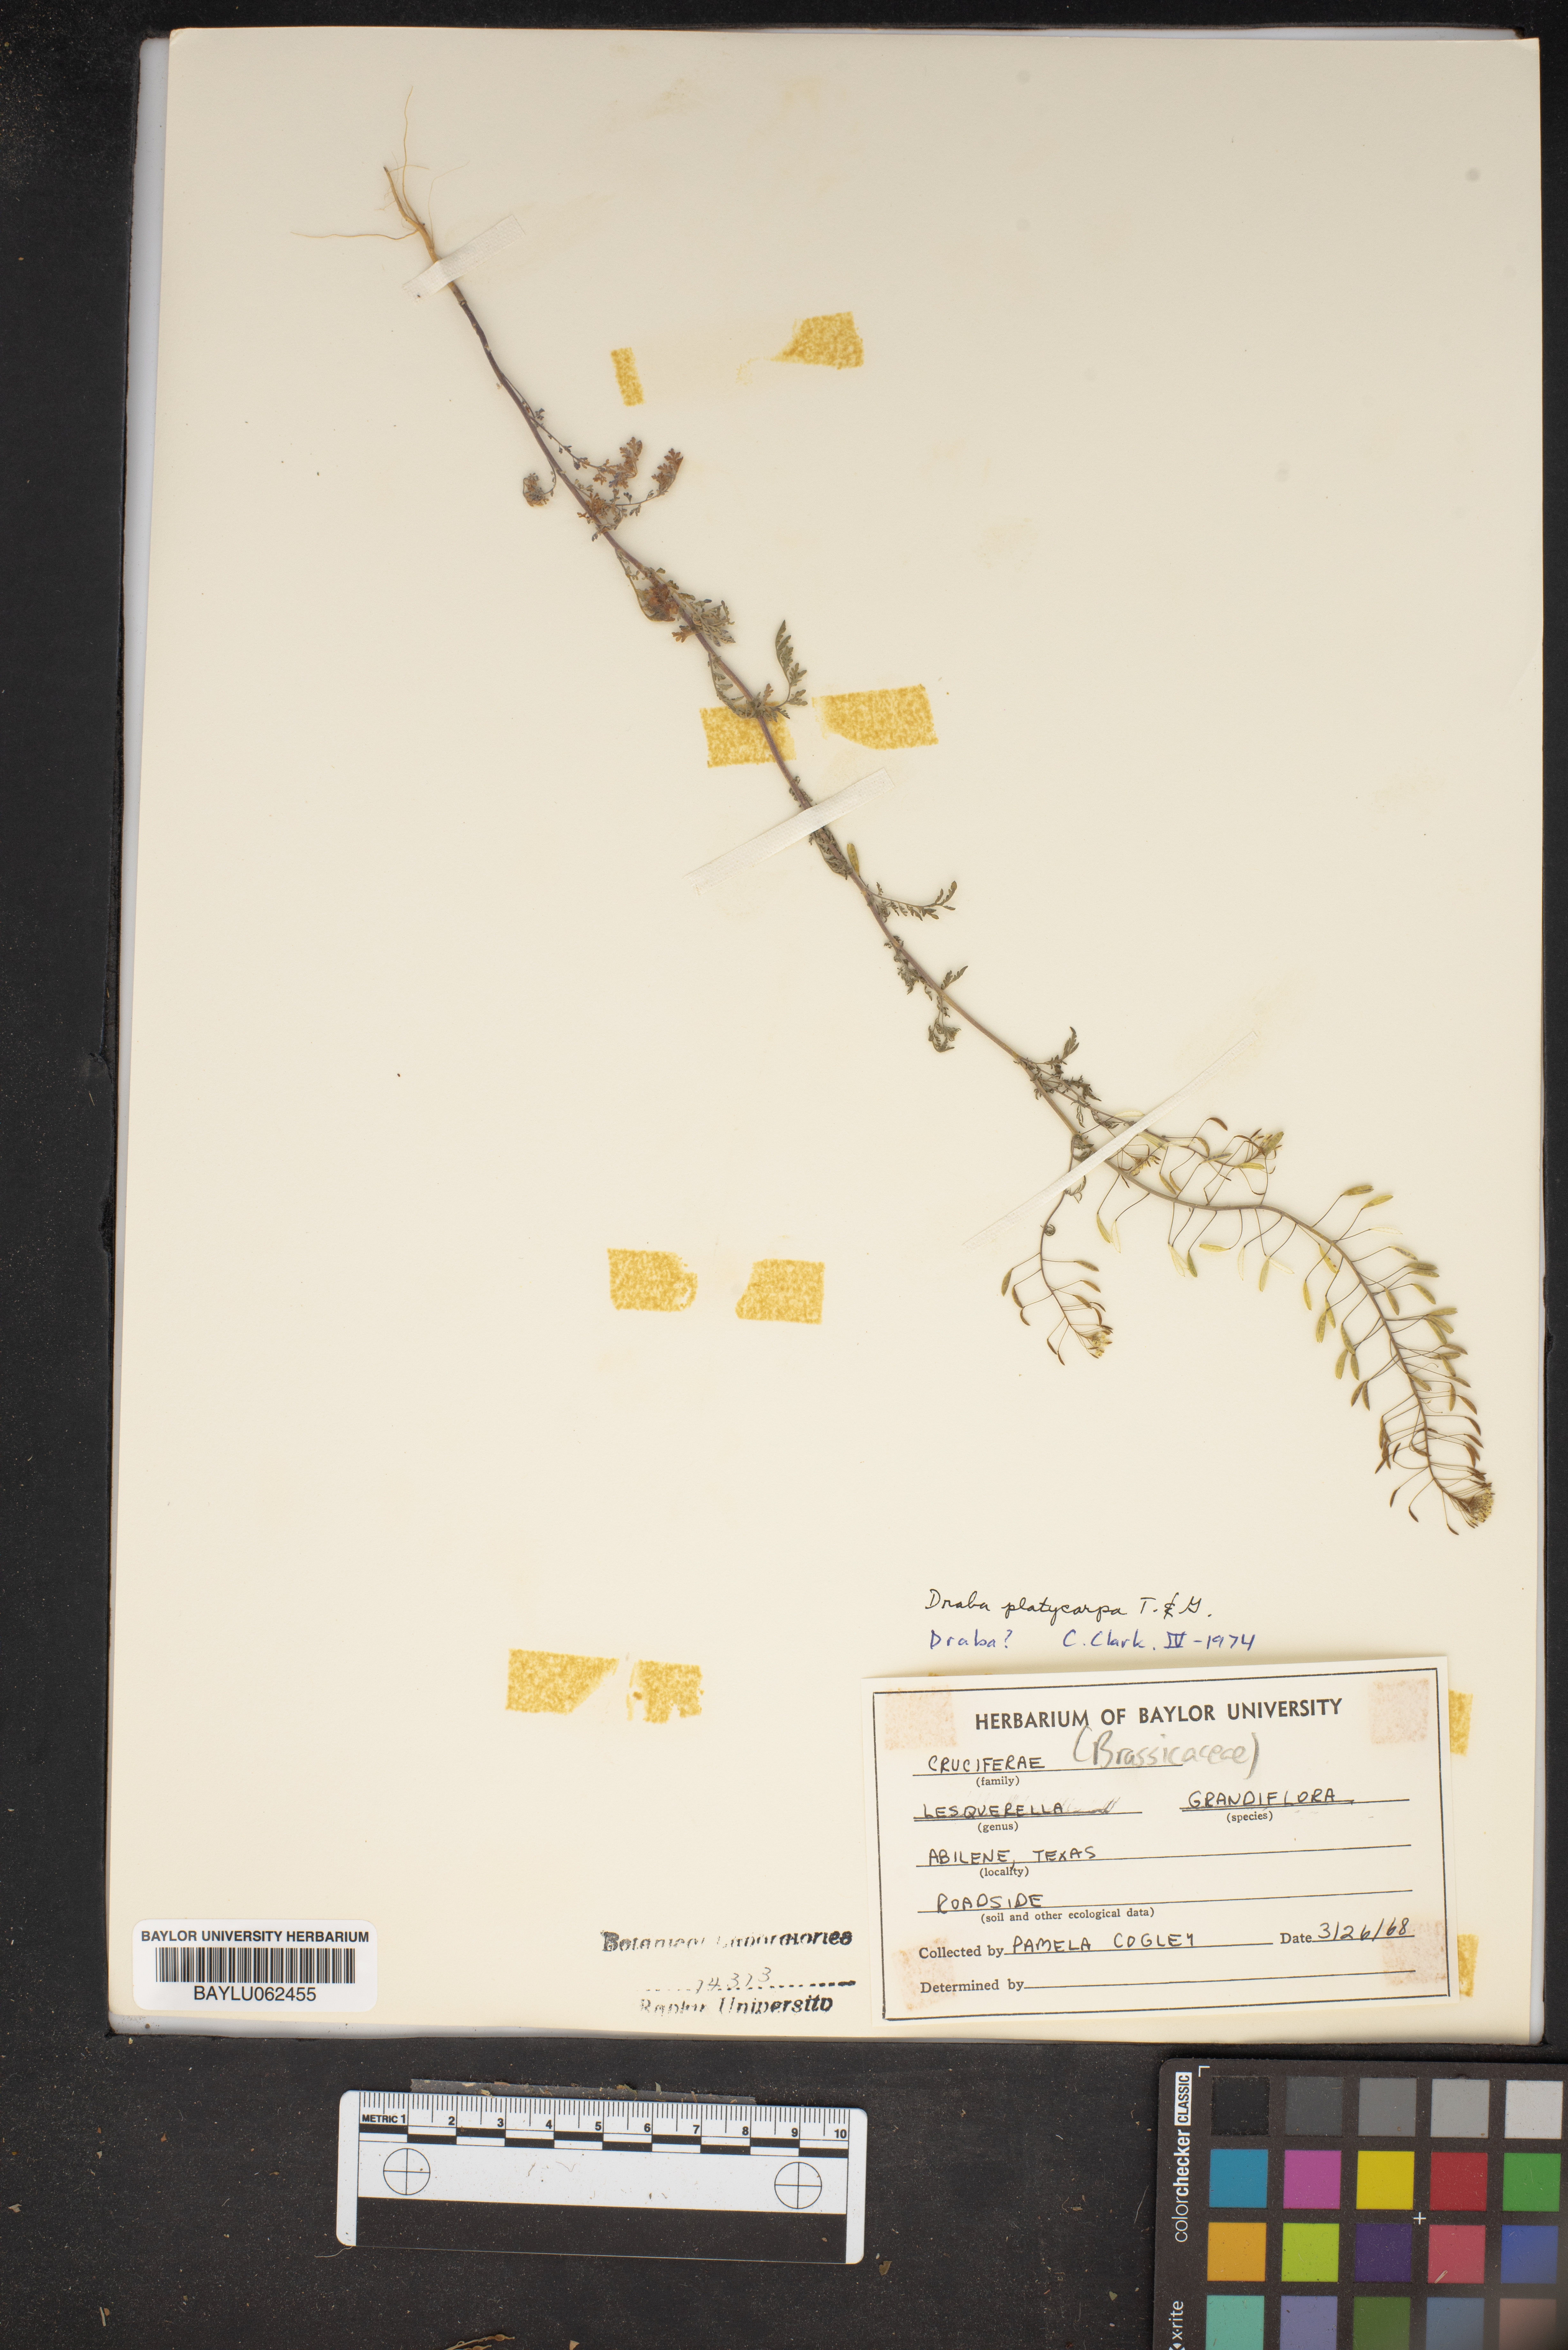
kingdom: Plantae
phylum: Tracheophyta
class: Magnoliopsida
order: Brassicales
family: Brassicaceae
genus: Tomostima
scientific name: Tomostima platycarpa
